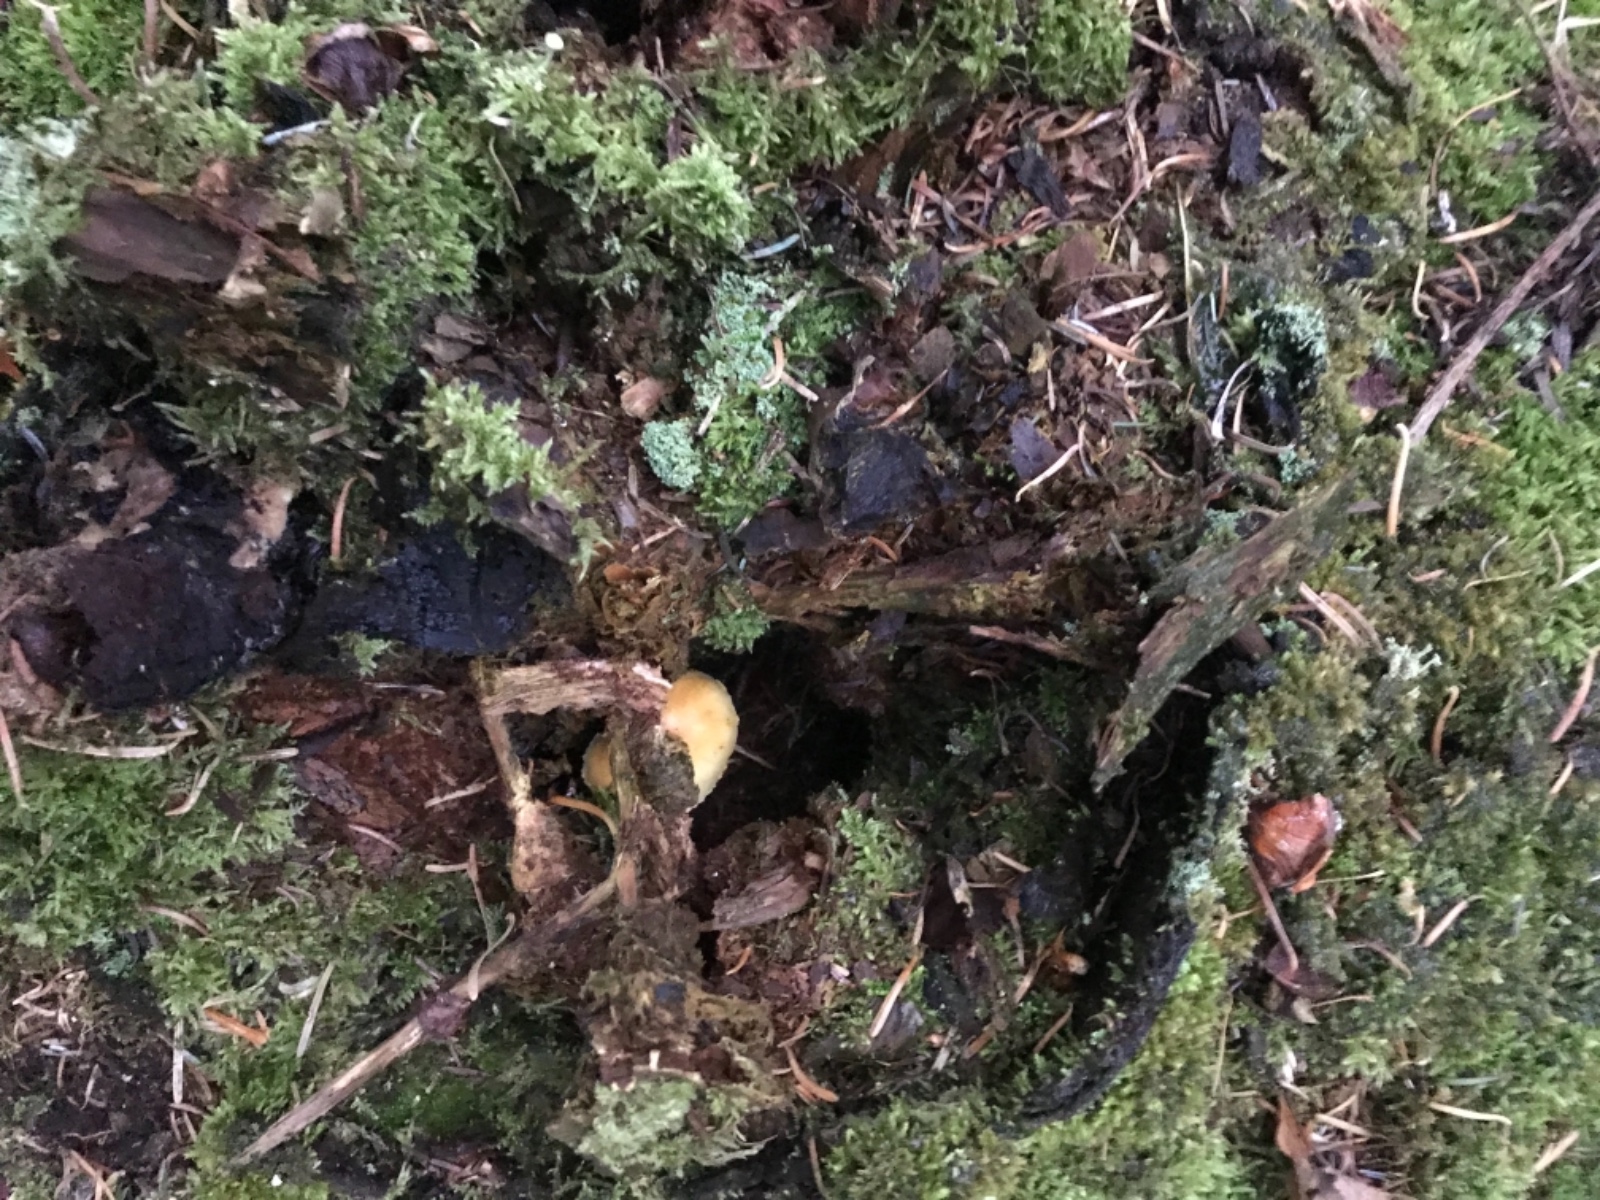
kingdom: Fungi
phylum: Basidiomycota
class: Agaricomycetes
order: Agaricales
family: Hymenogastraceae
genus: Gymnopilus
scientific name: Gymnopilus penetrans
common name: plettet flammehat
